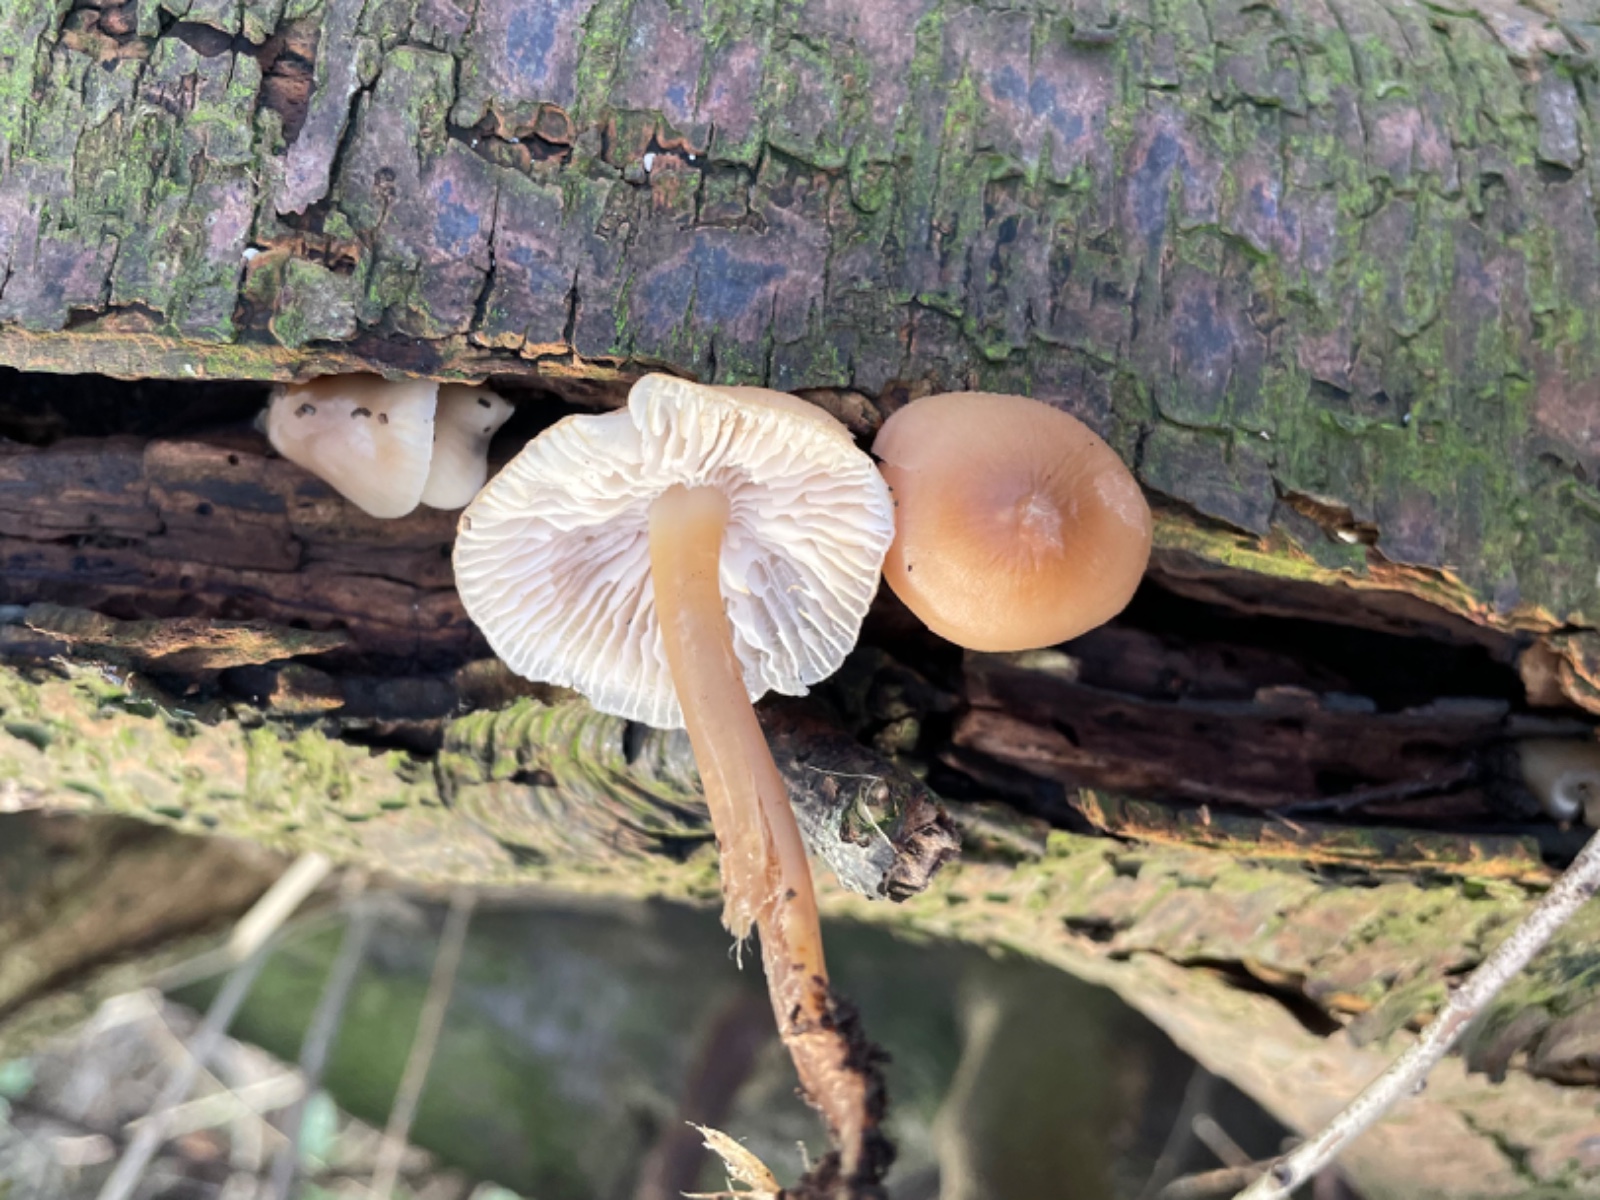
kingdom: Fungi
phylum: Basidiomycota
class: Agaricomycetes
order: Agaricales
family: Mycenaceae
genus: Mycena
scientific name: Mycena galericulata
